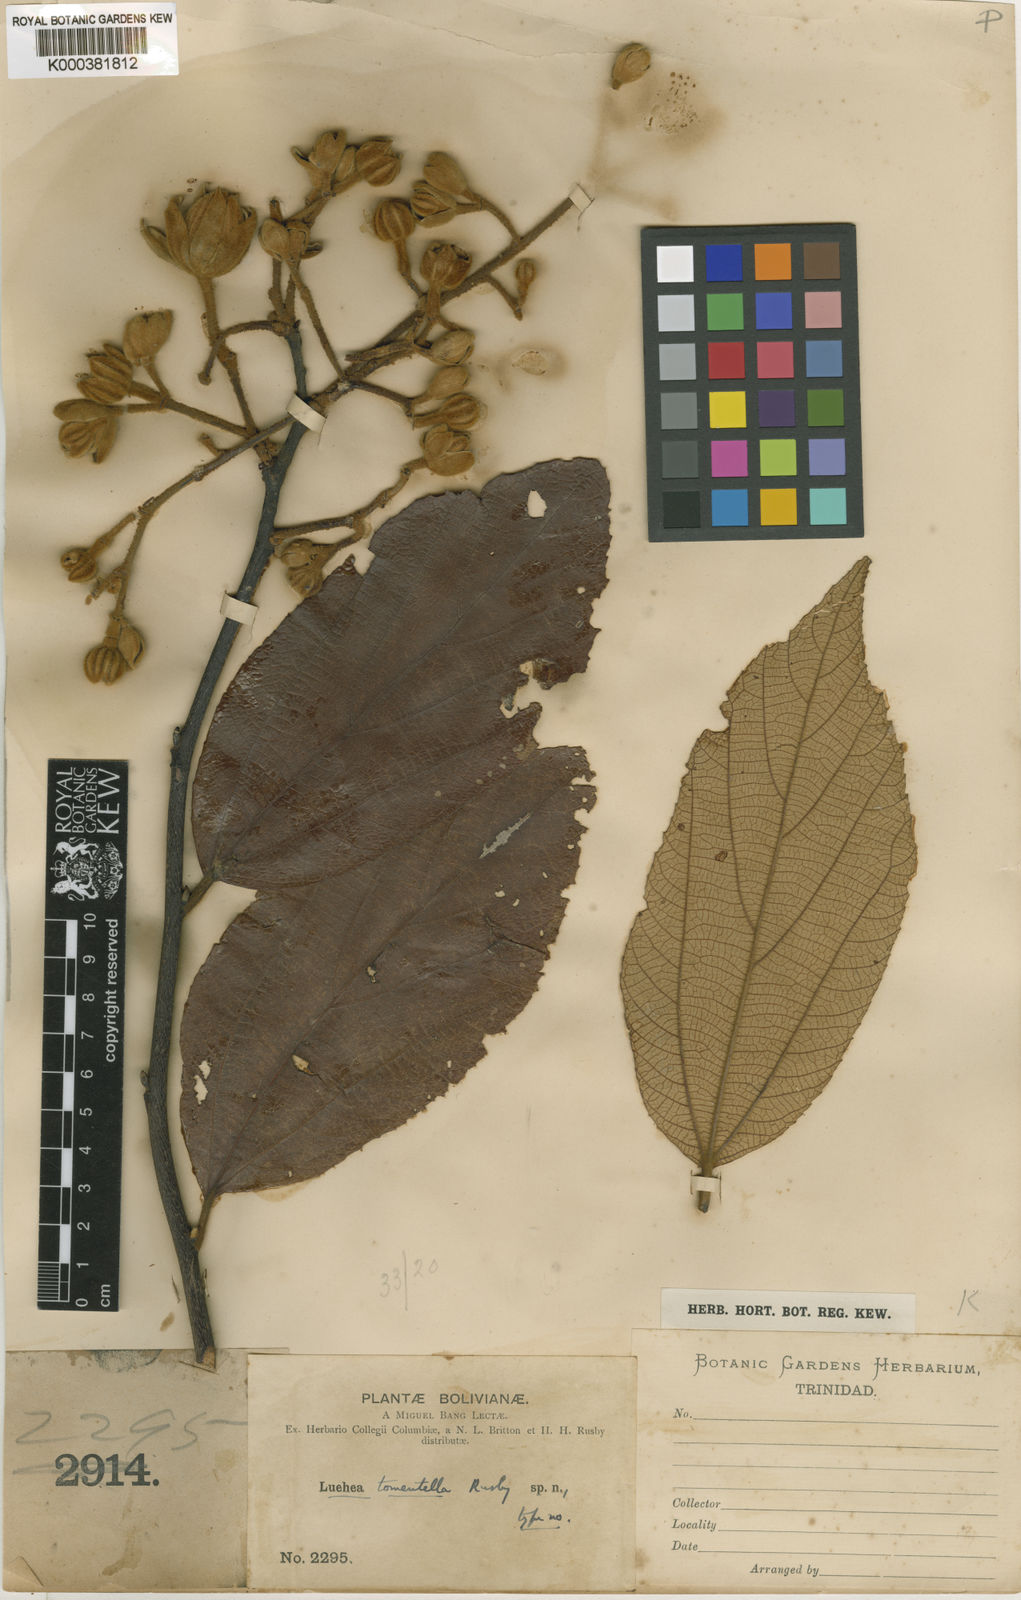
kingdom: Plantae
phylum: Tracheophyta
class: Magnoliopsida
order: Malvales
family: Malvaceae
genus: Luehea
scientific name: Luehea tomentella
